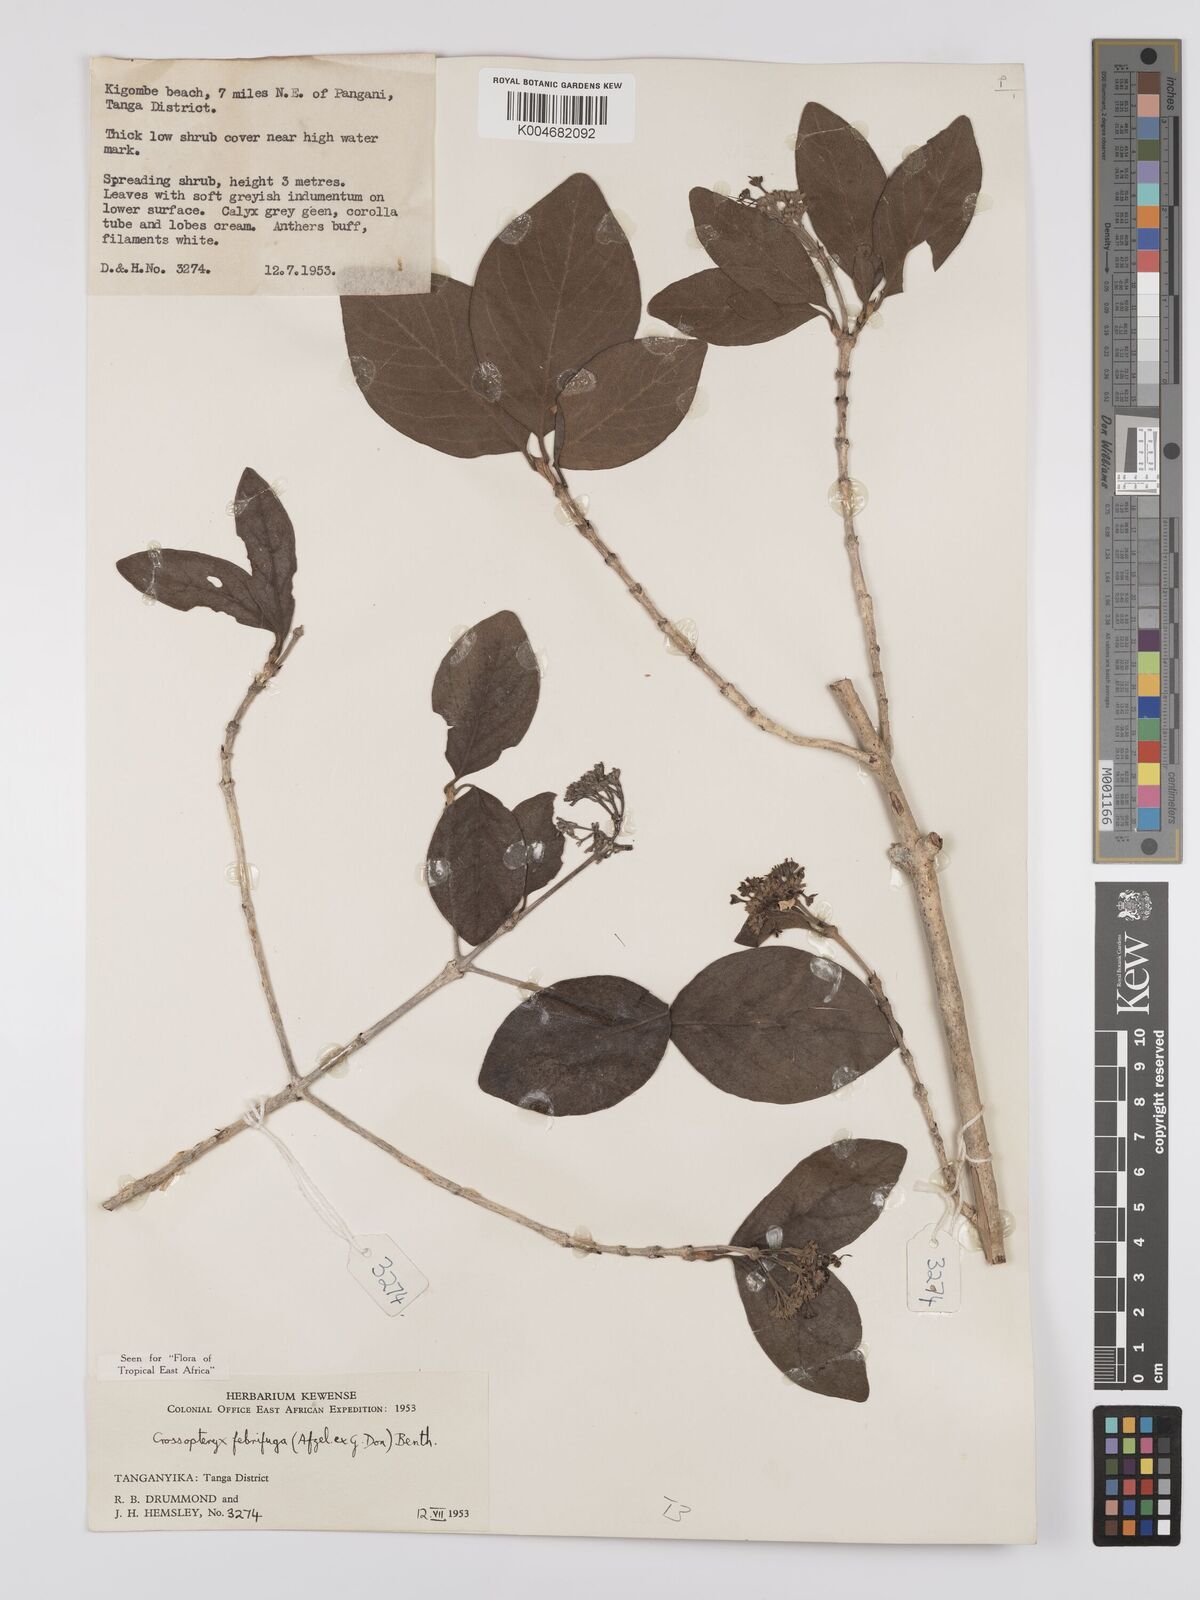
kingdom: Plantae
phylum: Tracheophyta
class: Magnoliopsida
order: Gentianales
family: Rubiaceae
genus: Crossopteryx
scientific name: Crossopteryx
